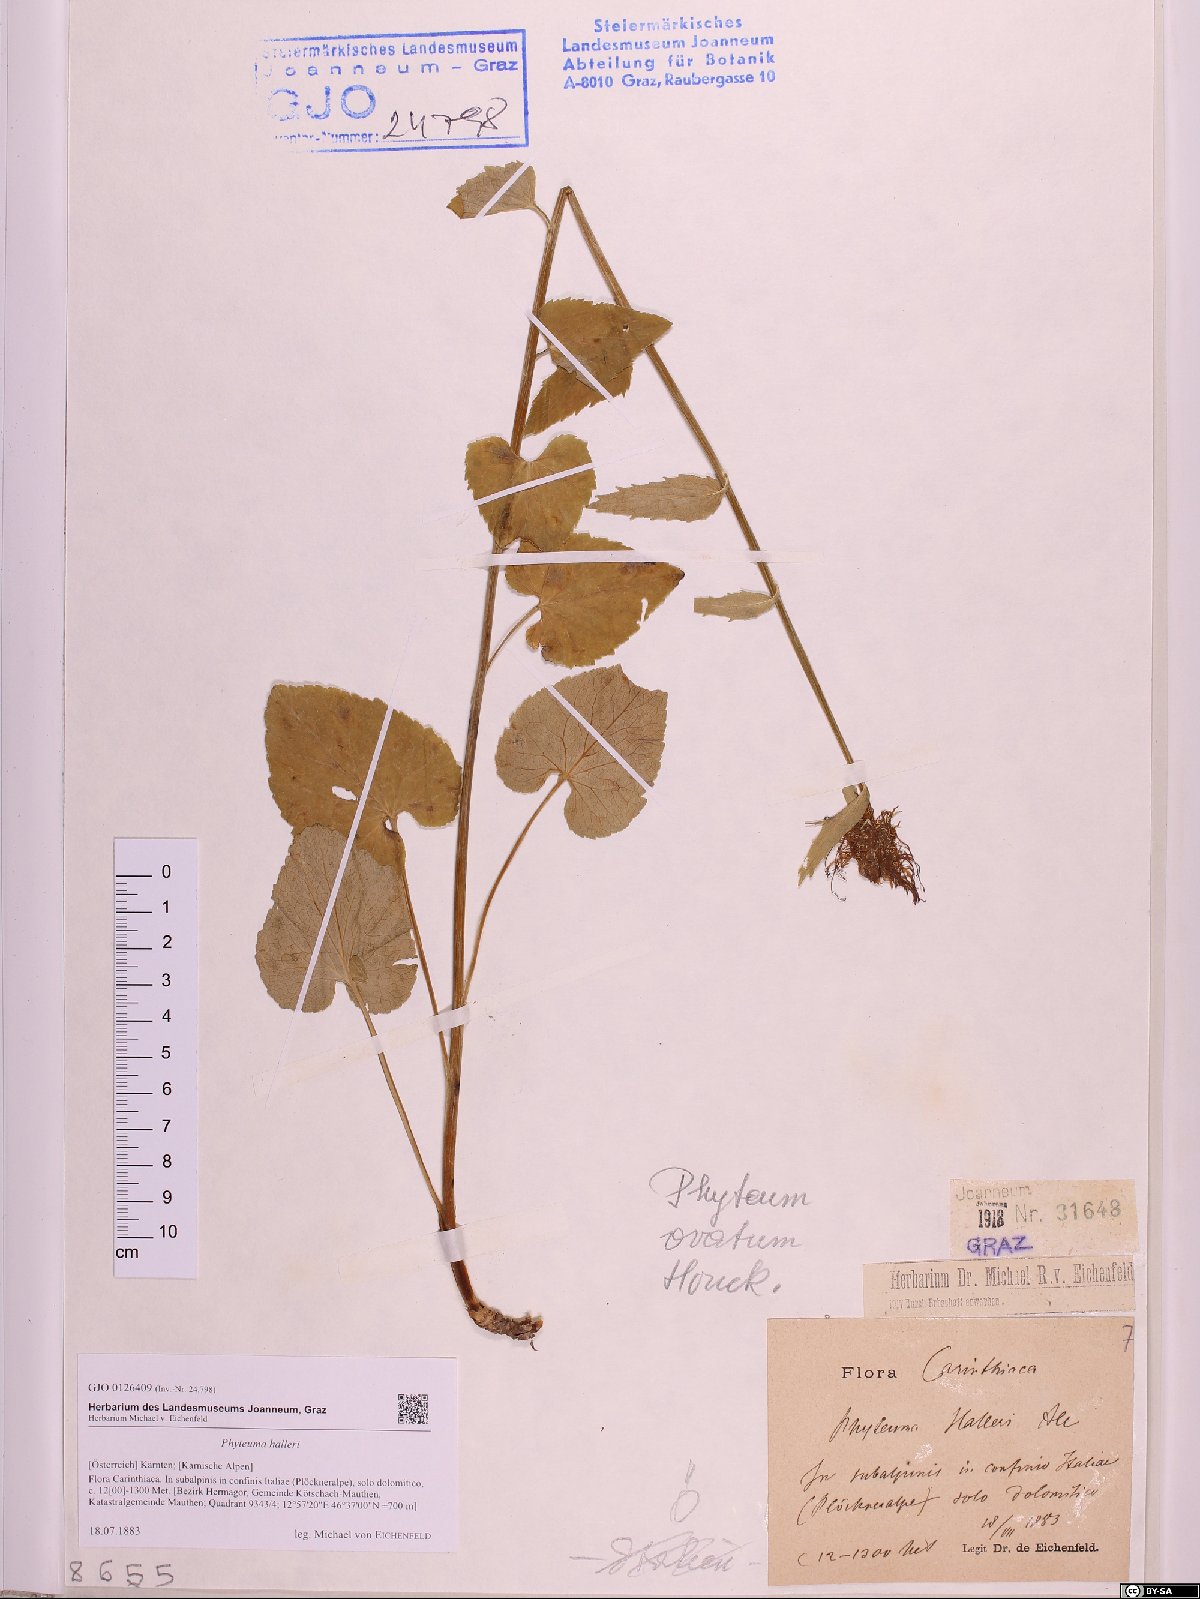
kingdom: Plantae
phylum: Tracheophyta
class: Magnoliopsida
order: Asterales
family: Campanulaceae
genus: Phyteuma
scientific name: Phyteuma ovatum
